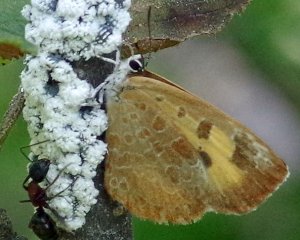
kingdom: Animalia
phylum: Arthropoda
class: Insecta
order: Lepidoptera
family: Lycaenidae
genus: Feniseca
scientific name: Feniseca tarquinius
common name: Harvester
